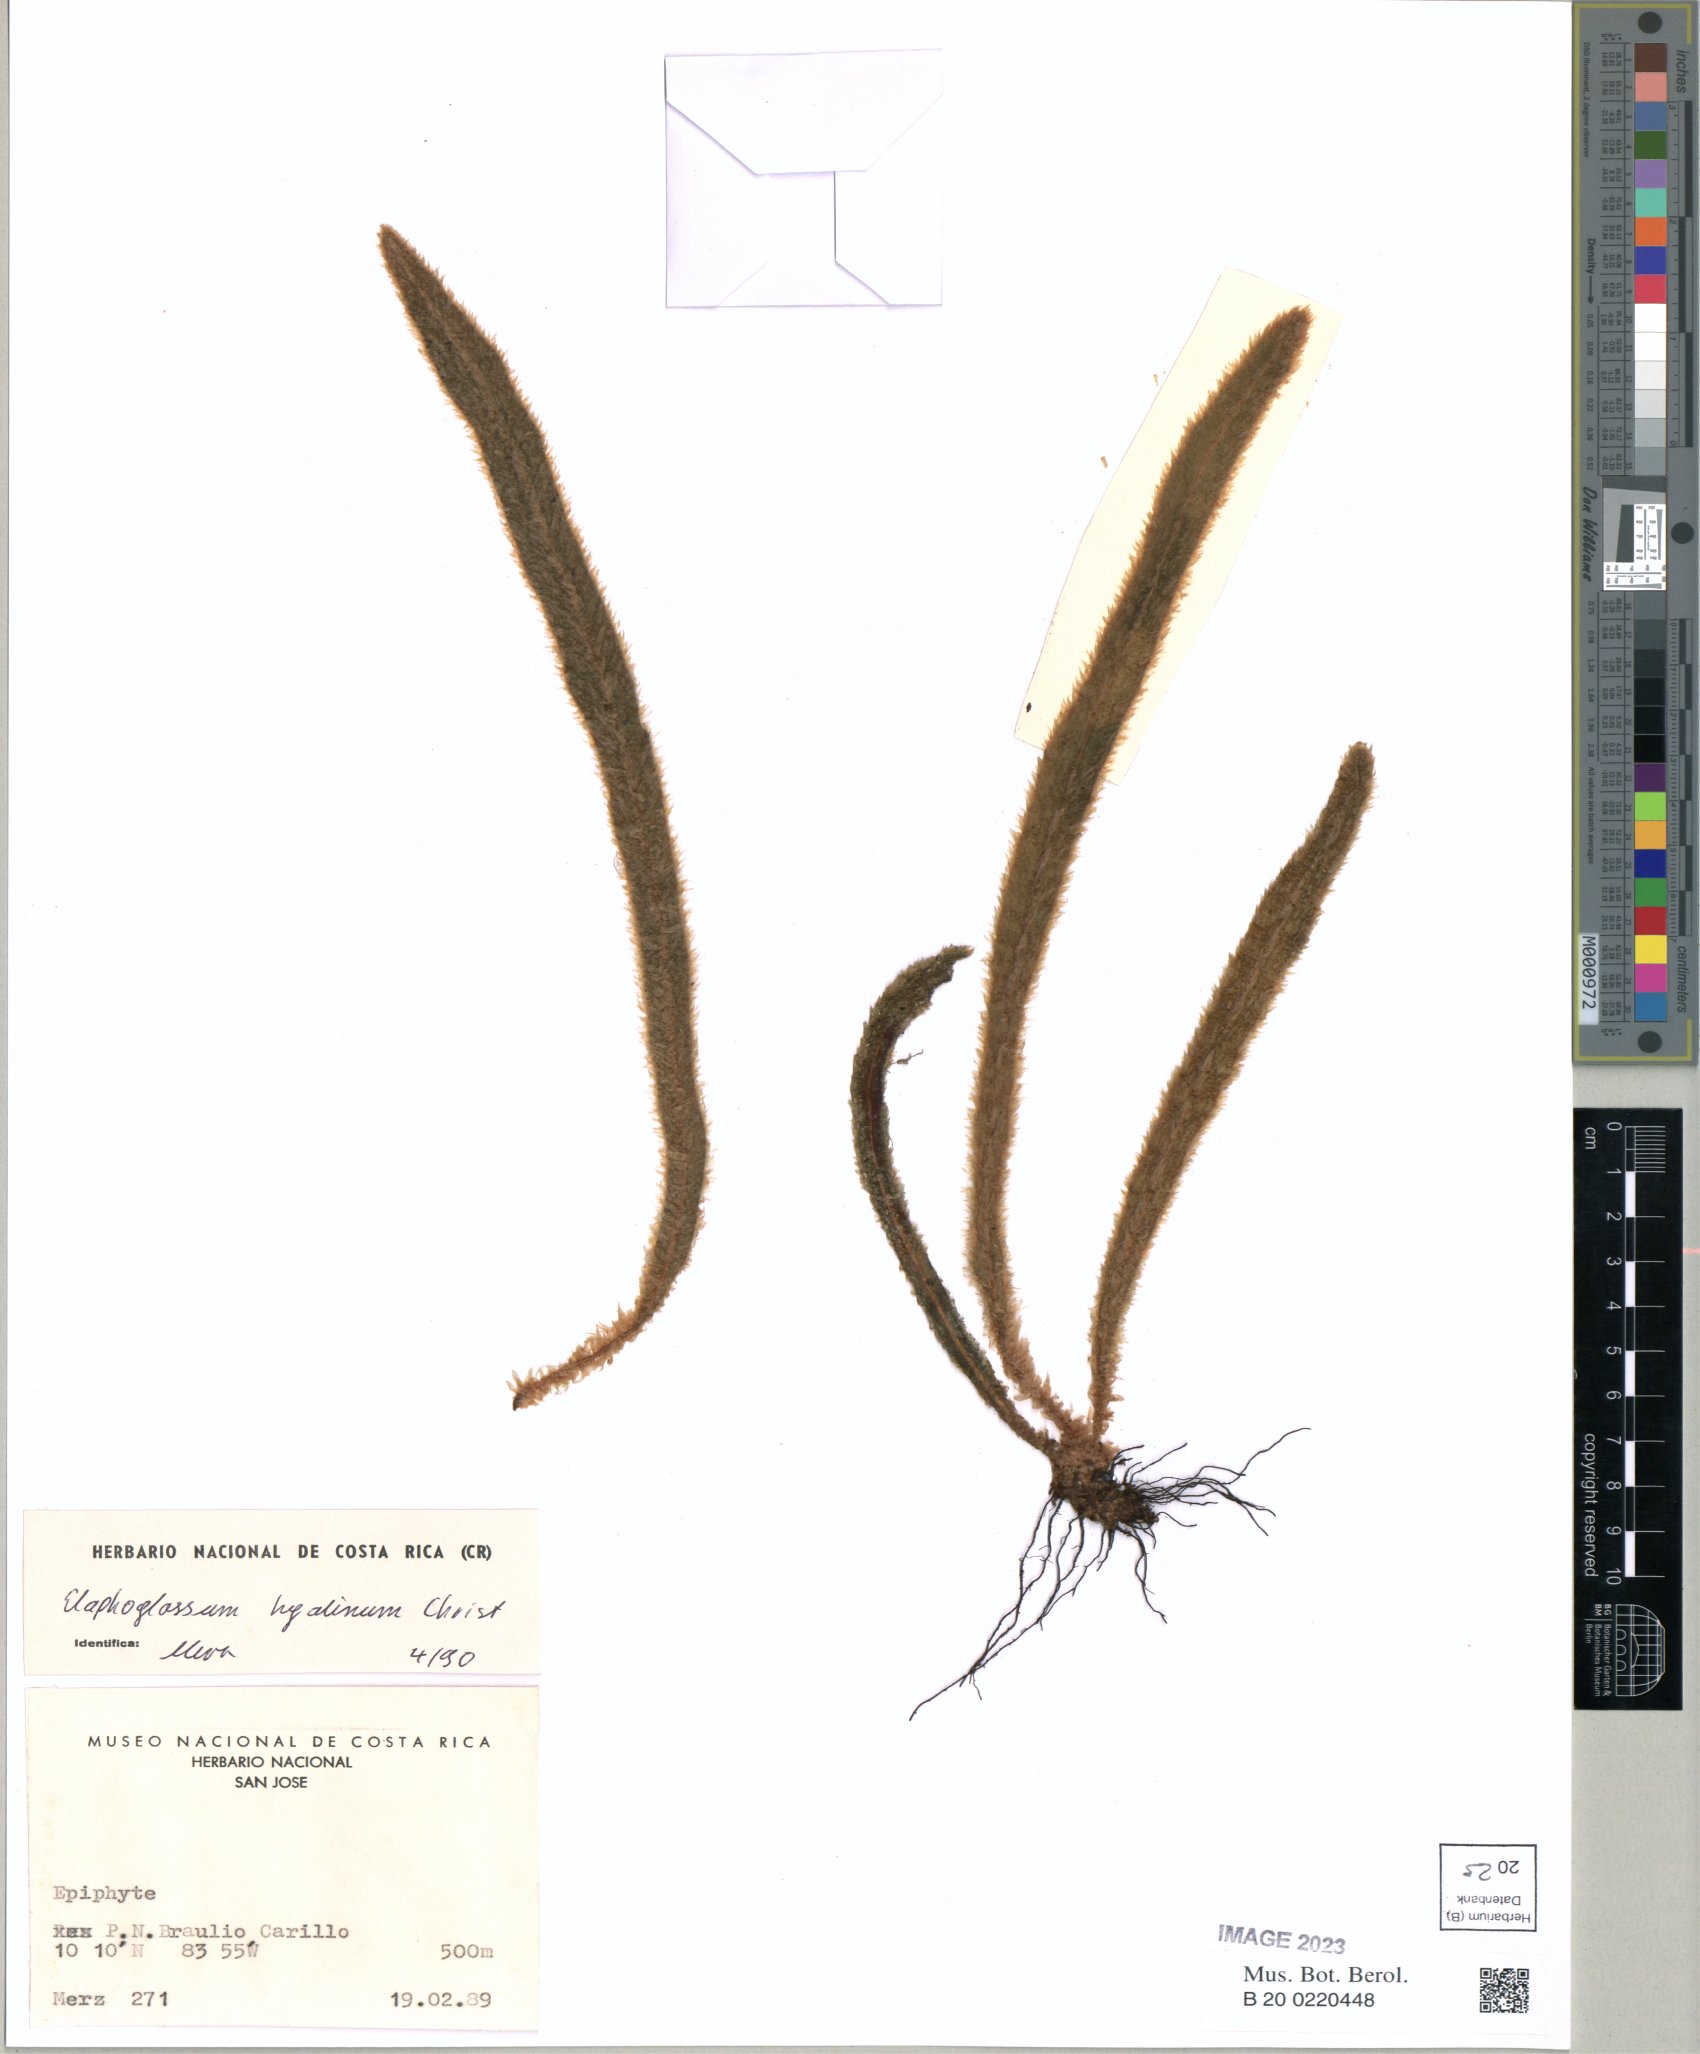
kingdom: Plantae
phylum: Tracheophyta
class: Polypodiopsida
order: Polypodiales
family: Dryopteridaceae
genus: Elaphoglossum
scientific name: Elaphoglossum hyalinum
